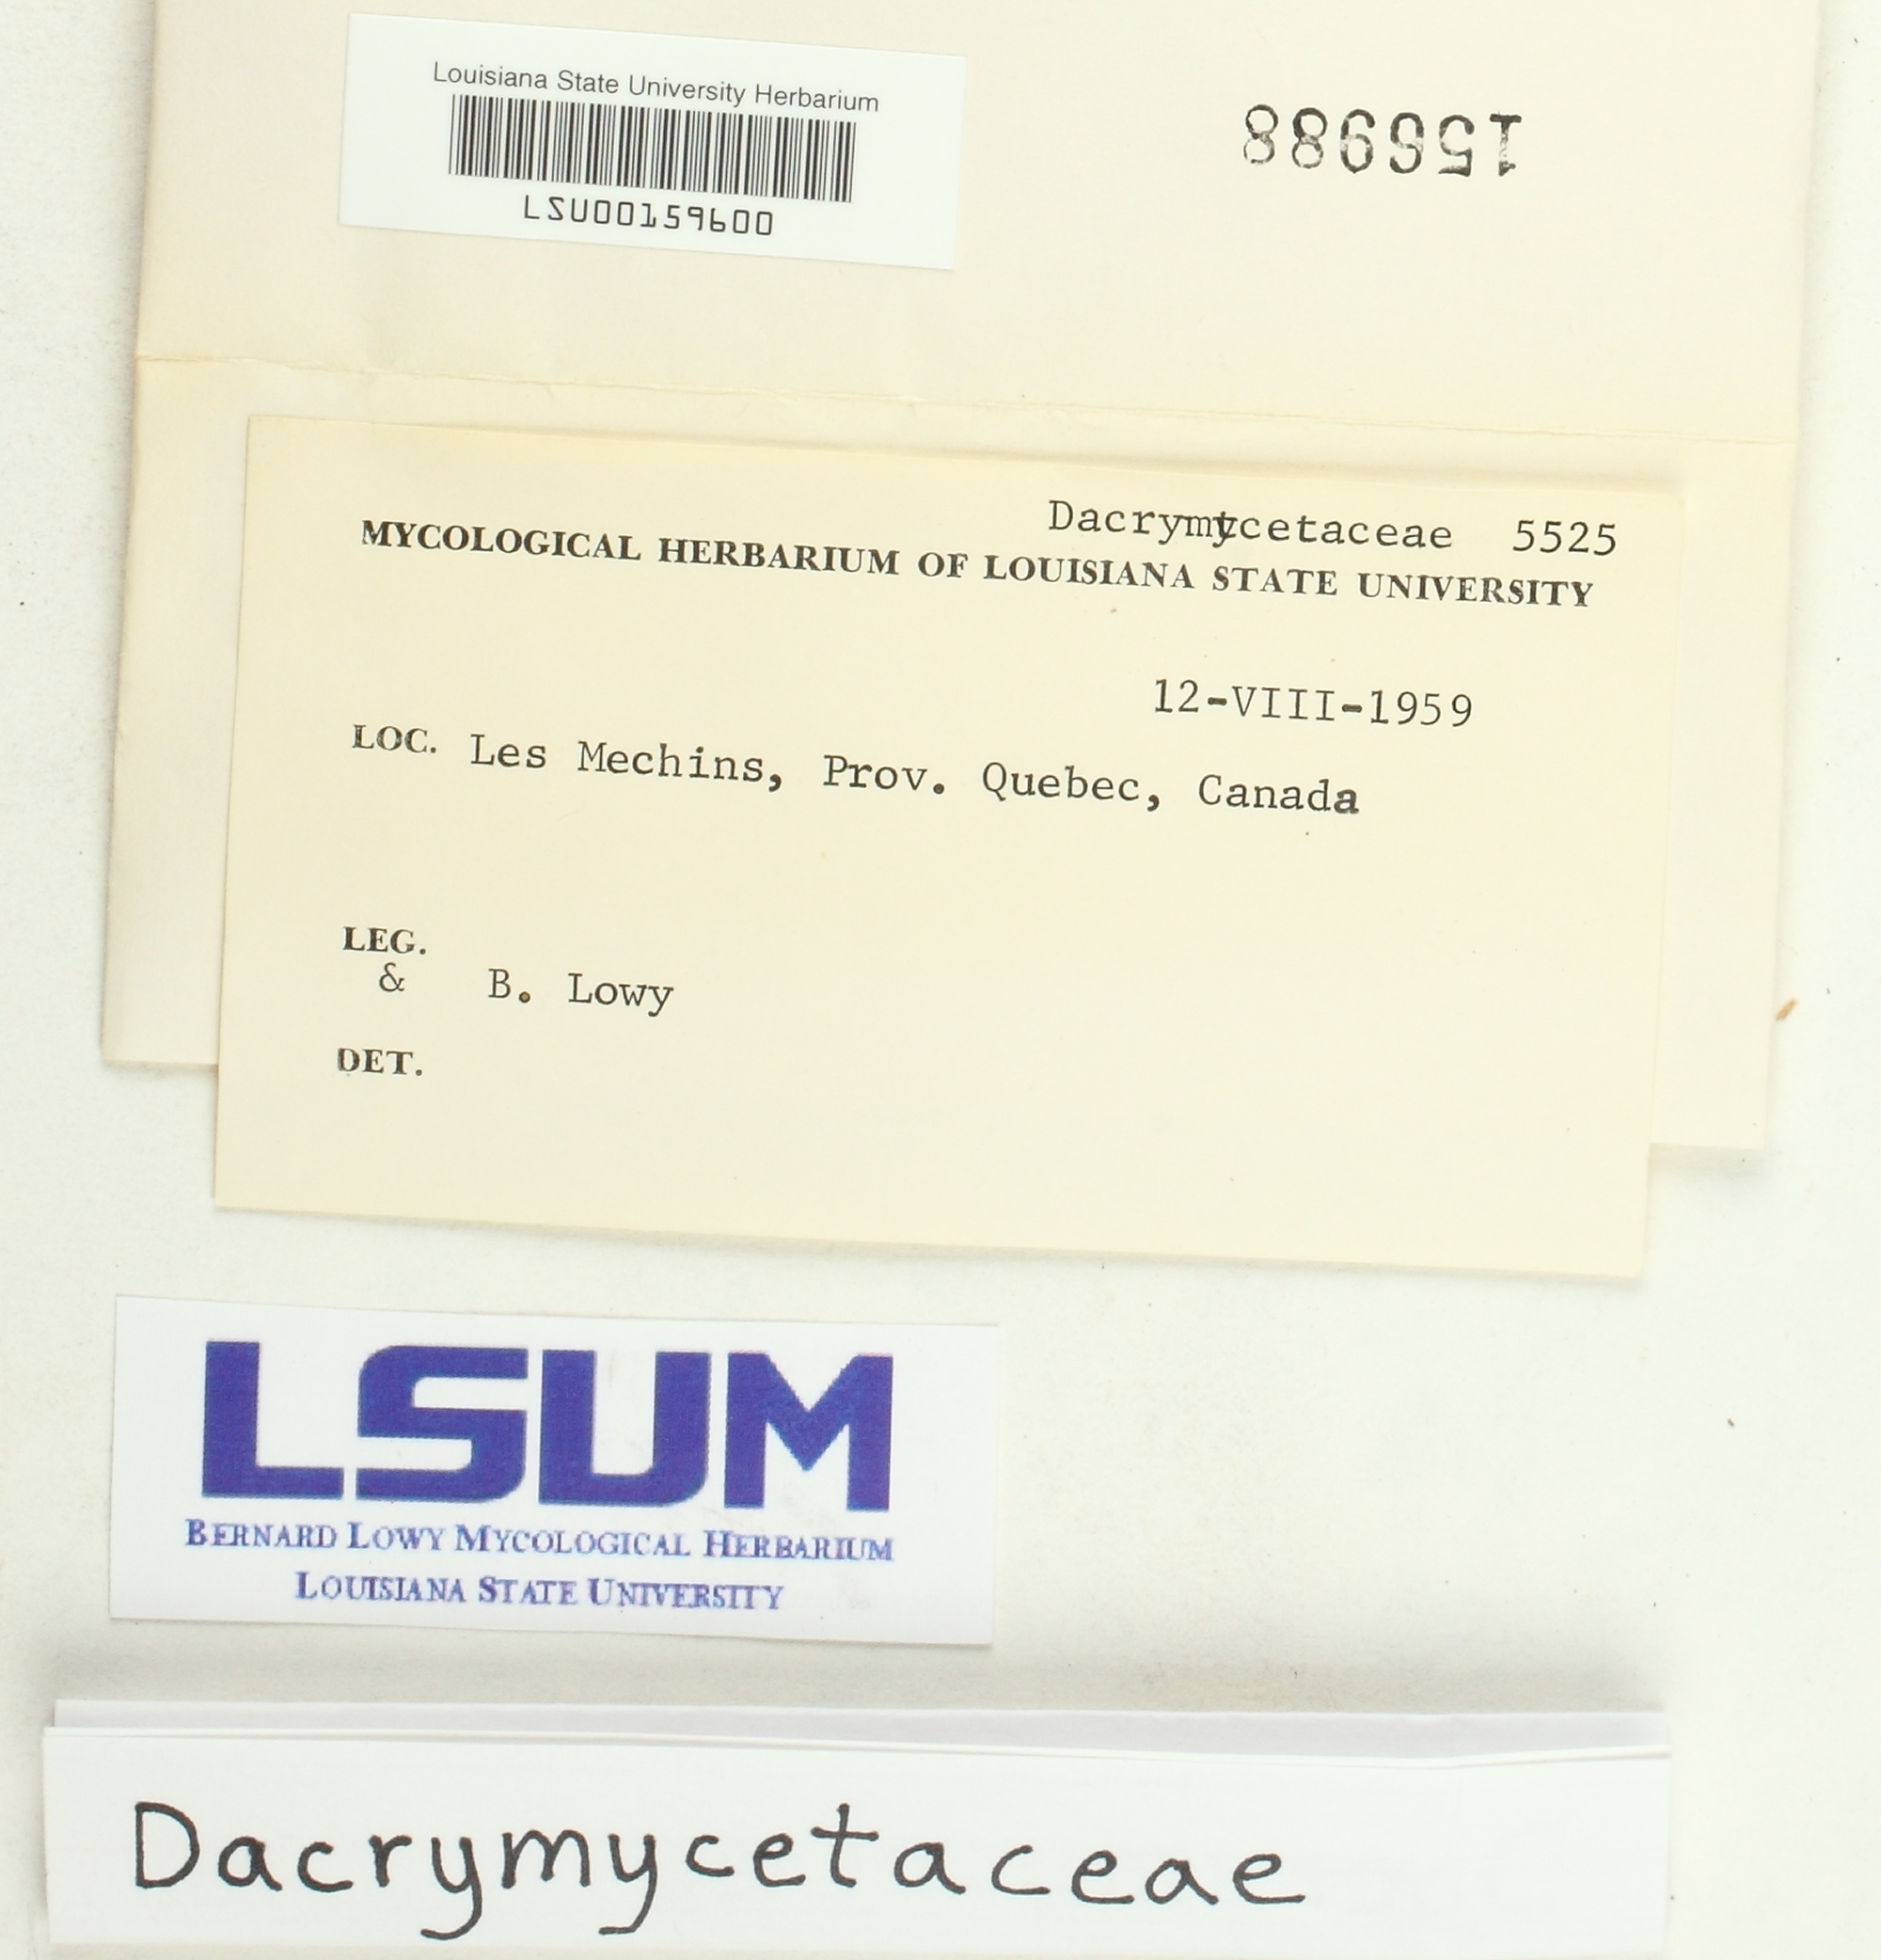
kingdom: Fungi
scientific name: Fungi
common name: Fungi
